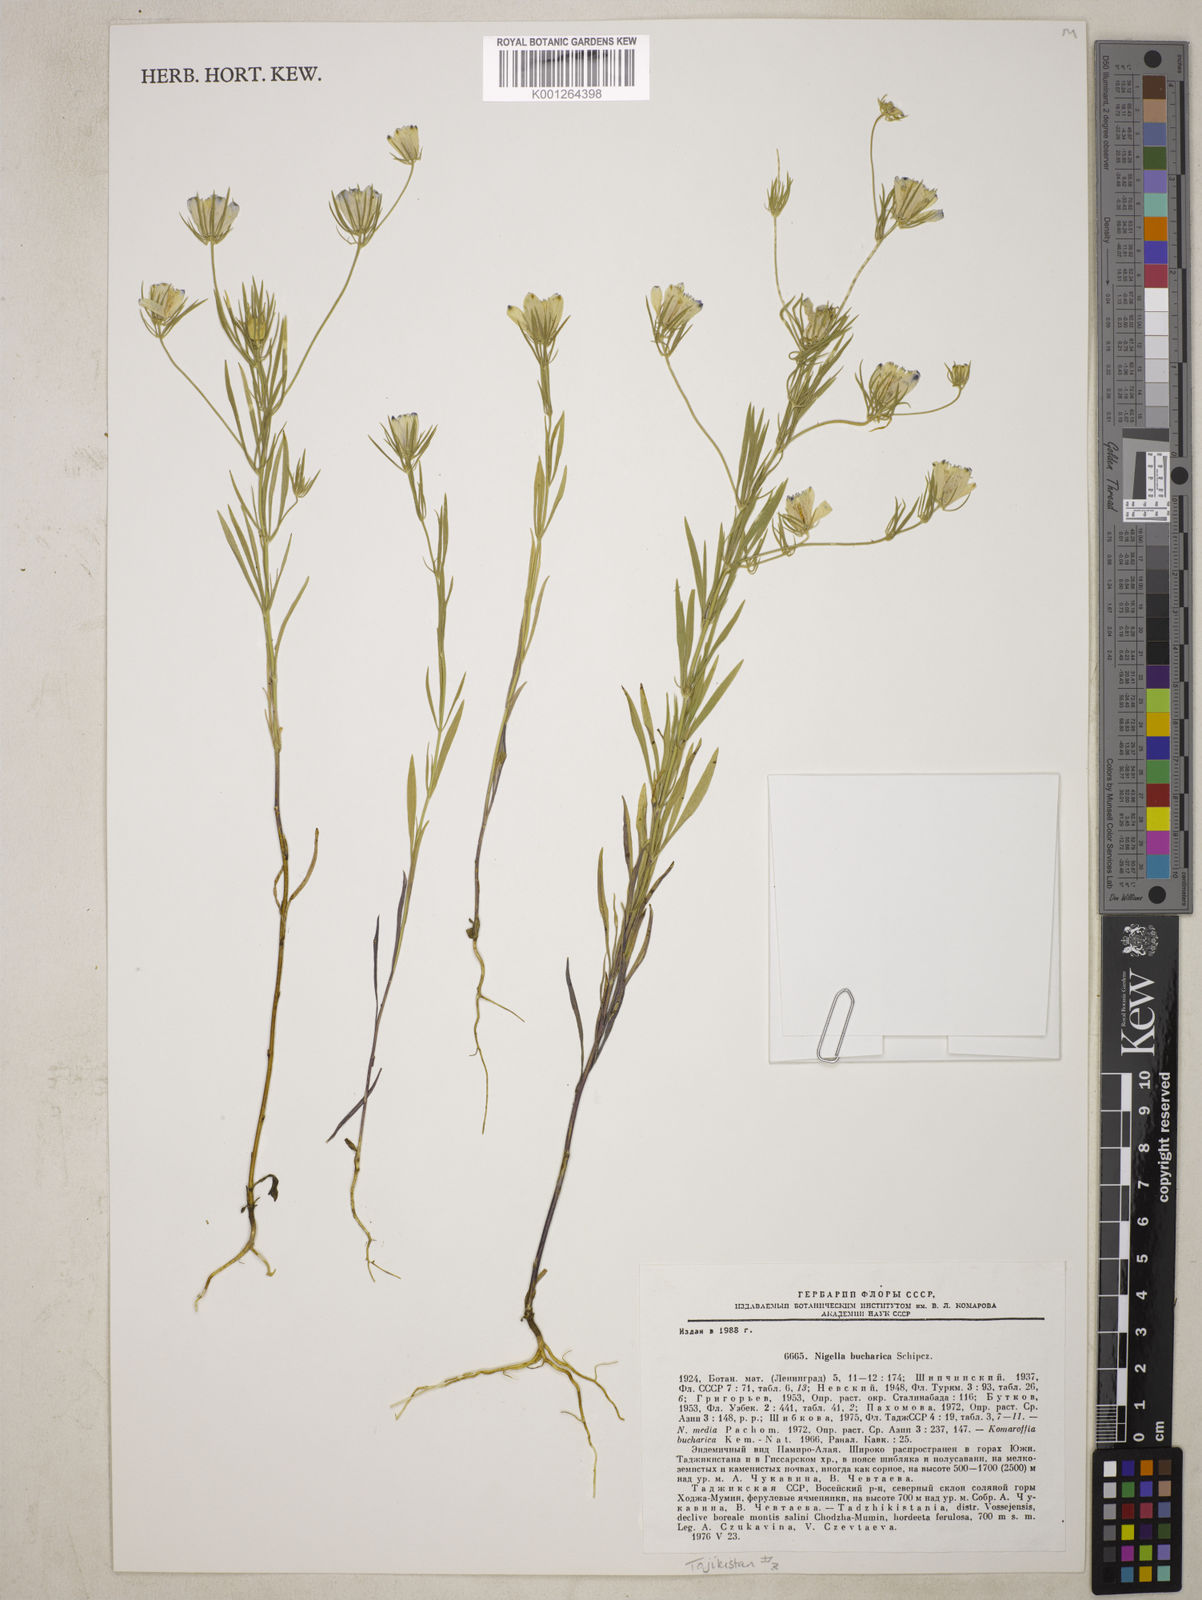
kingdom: Plantae
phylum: Tracheophyta
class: Magnoliopsida
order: Ranunculales
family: Ranunculaceae
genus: Komaroffia
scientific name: Komaroffia bucharica
